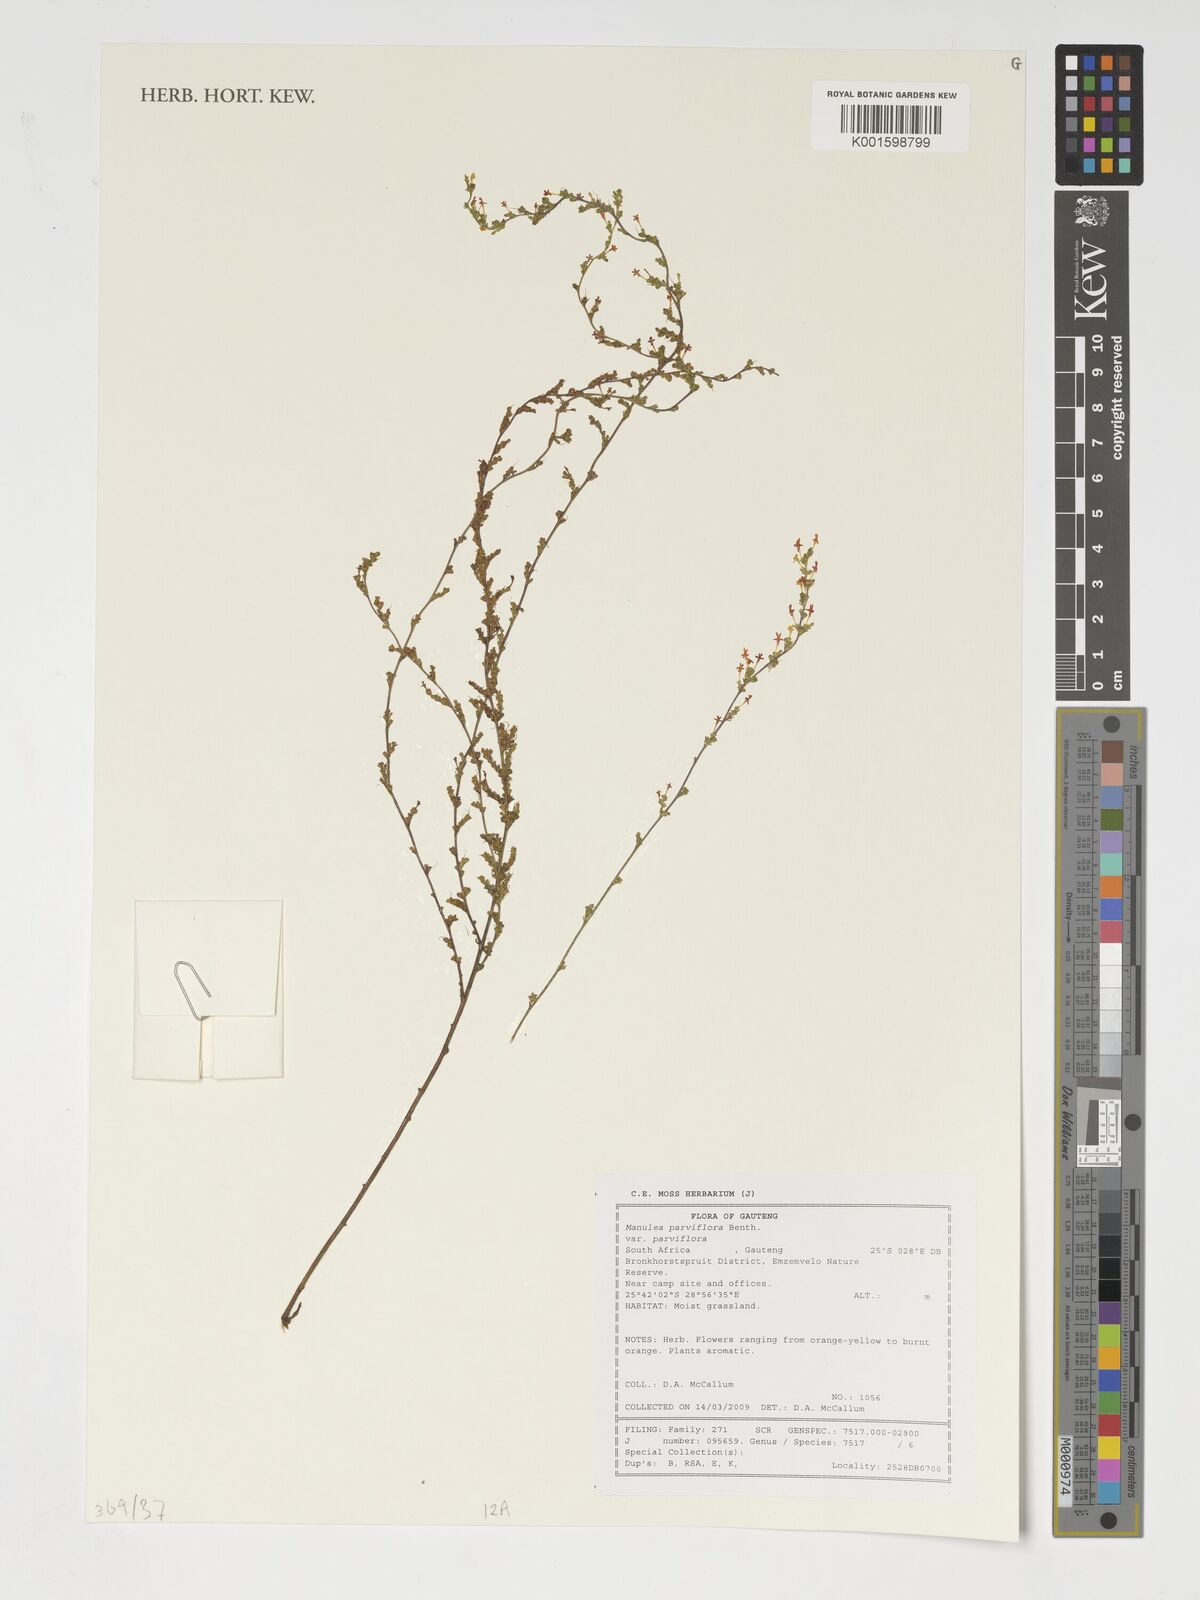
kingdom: Plantae
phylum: Tracheophyta
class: Magnoliopsida
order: Lamiales
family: Scrophulariaceae
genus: Manulea
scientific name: Manulea parviflora
